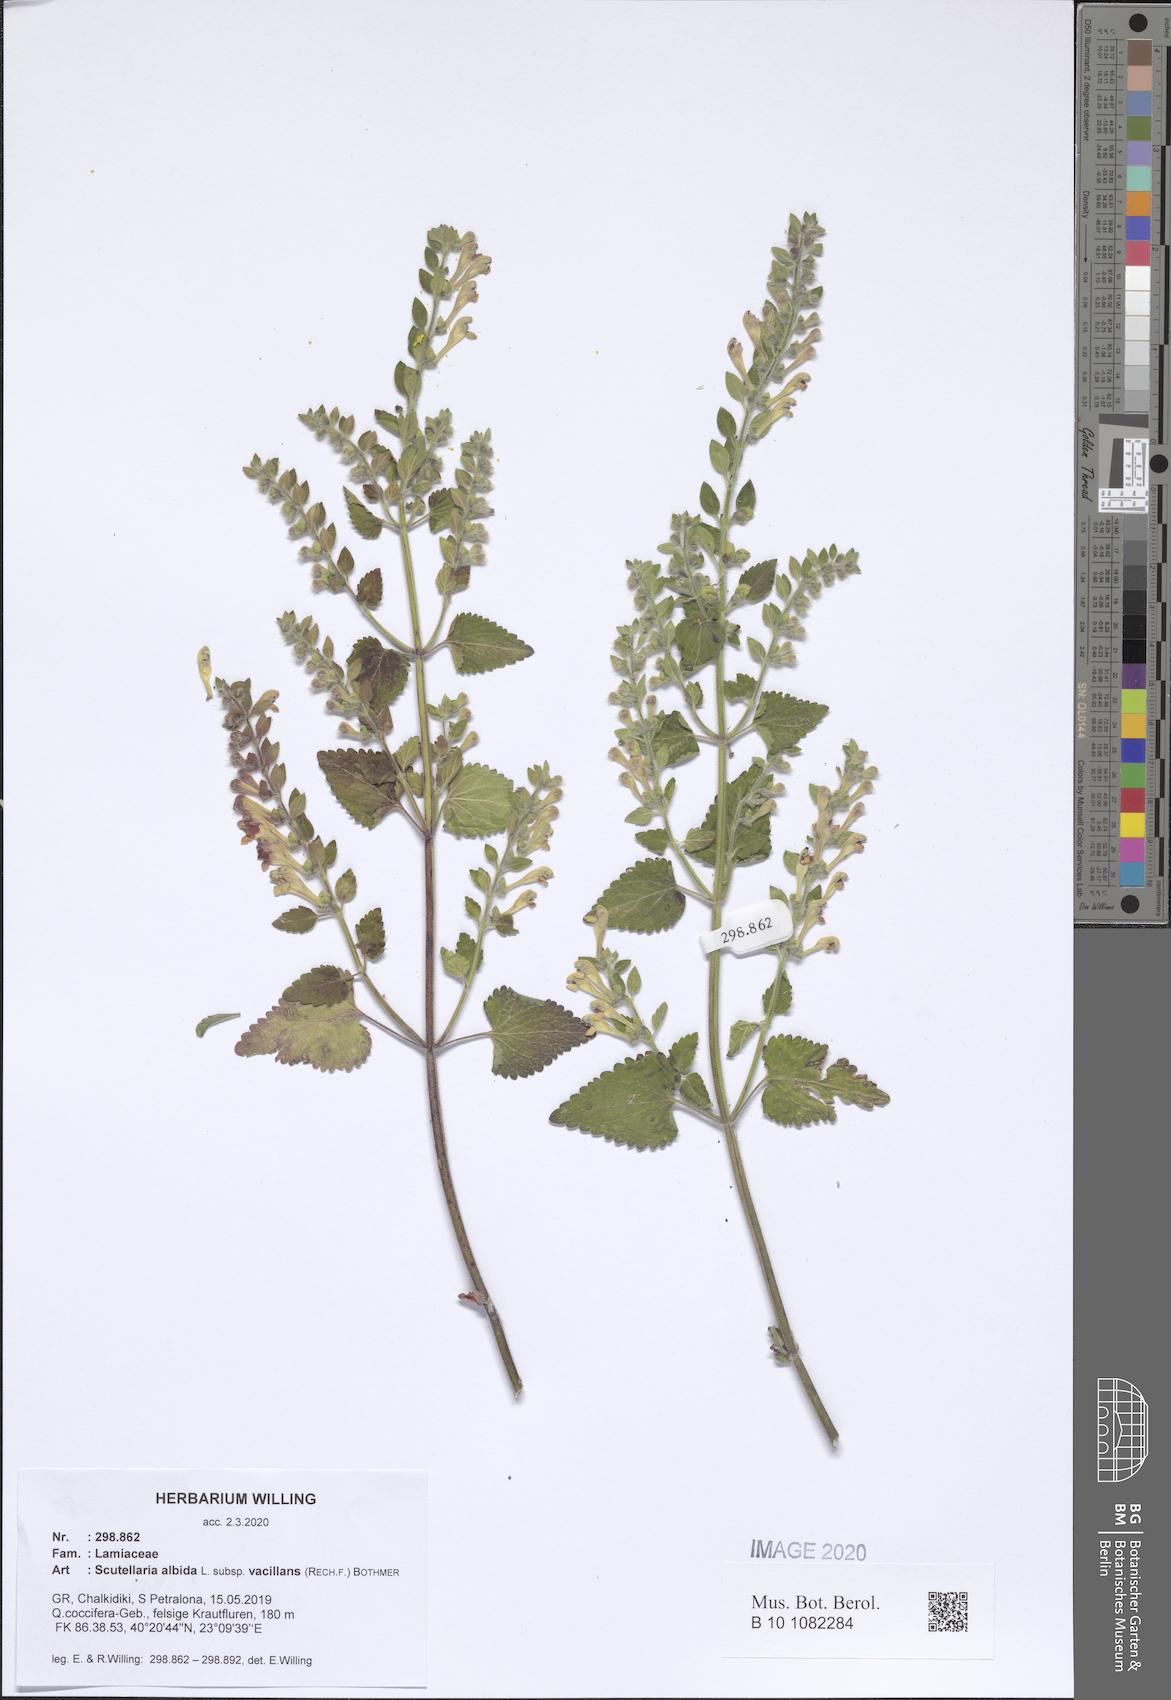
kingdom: Plantae
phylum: Tracheophyta
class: Magnoliopsida
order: Lamiales
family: Lamiaceae
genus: Scutellaria
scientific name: Scutellaria albida
